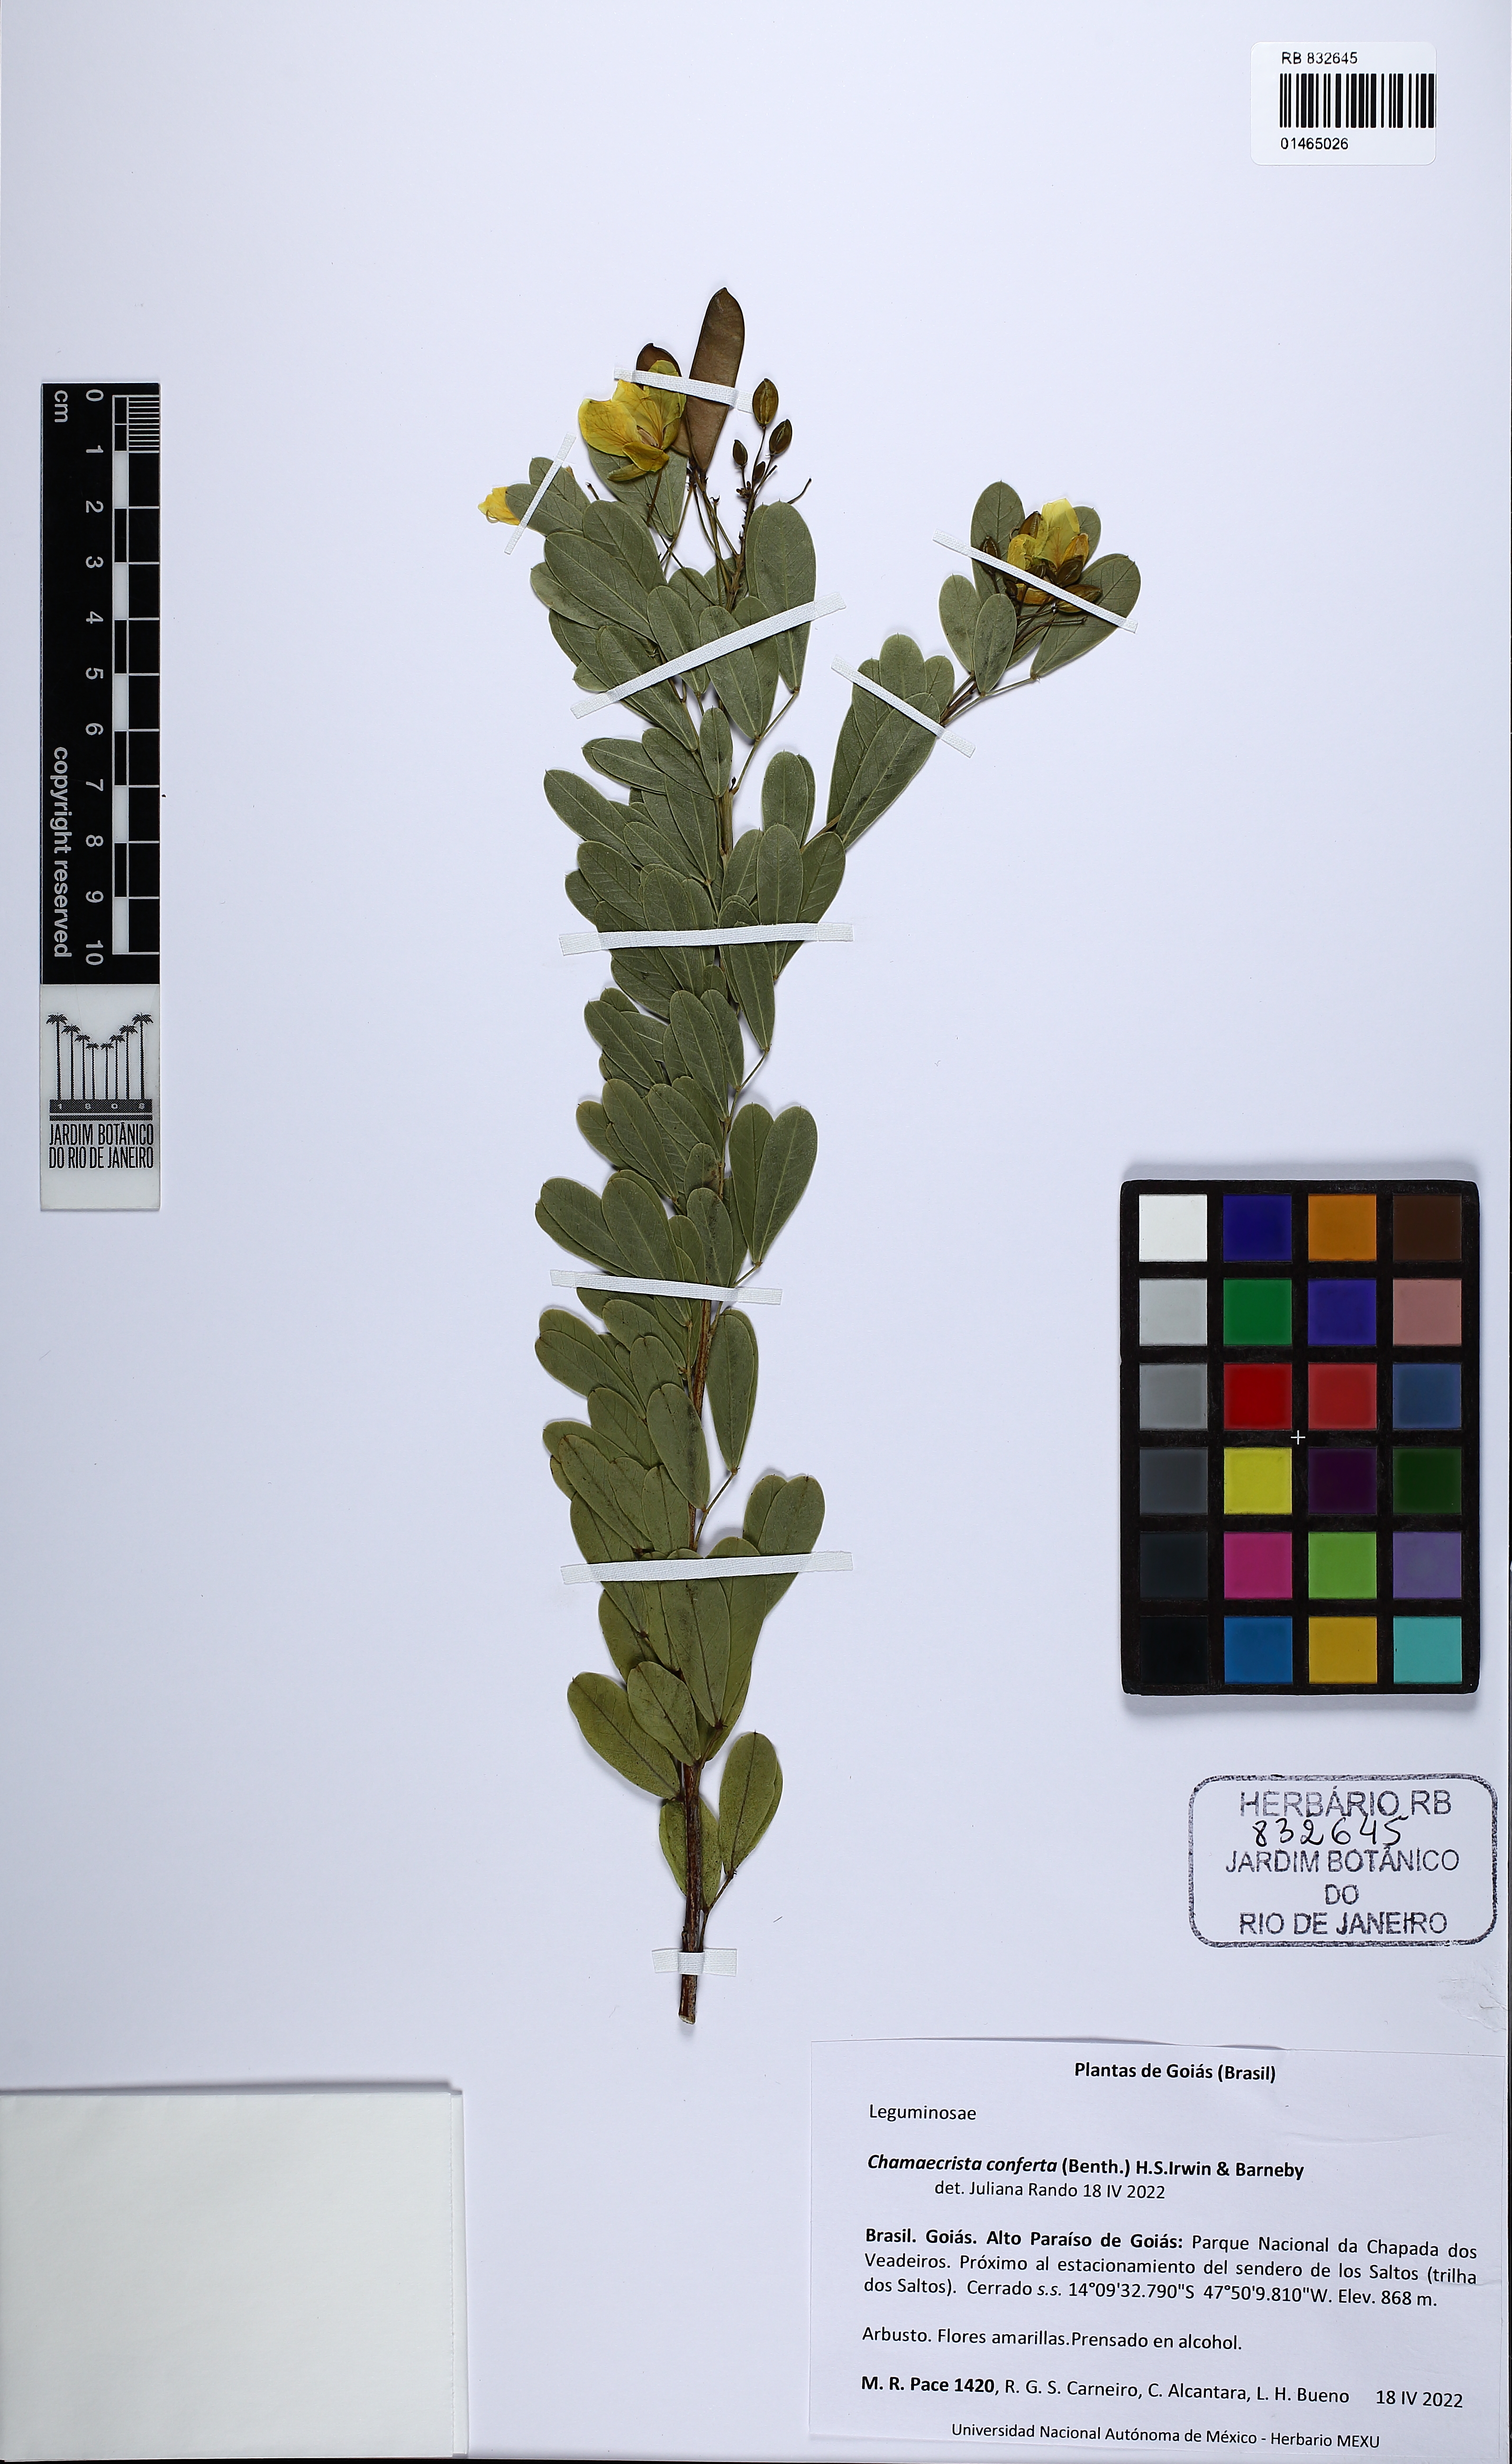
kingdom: Plantae
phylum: Tracheophyta
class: Magnoliopsida
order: Fabales
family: Fabaceae
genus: Chamaecrista
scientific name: Chamaecrista conferta
